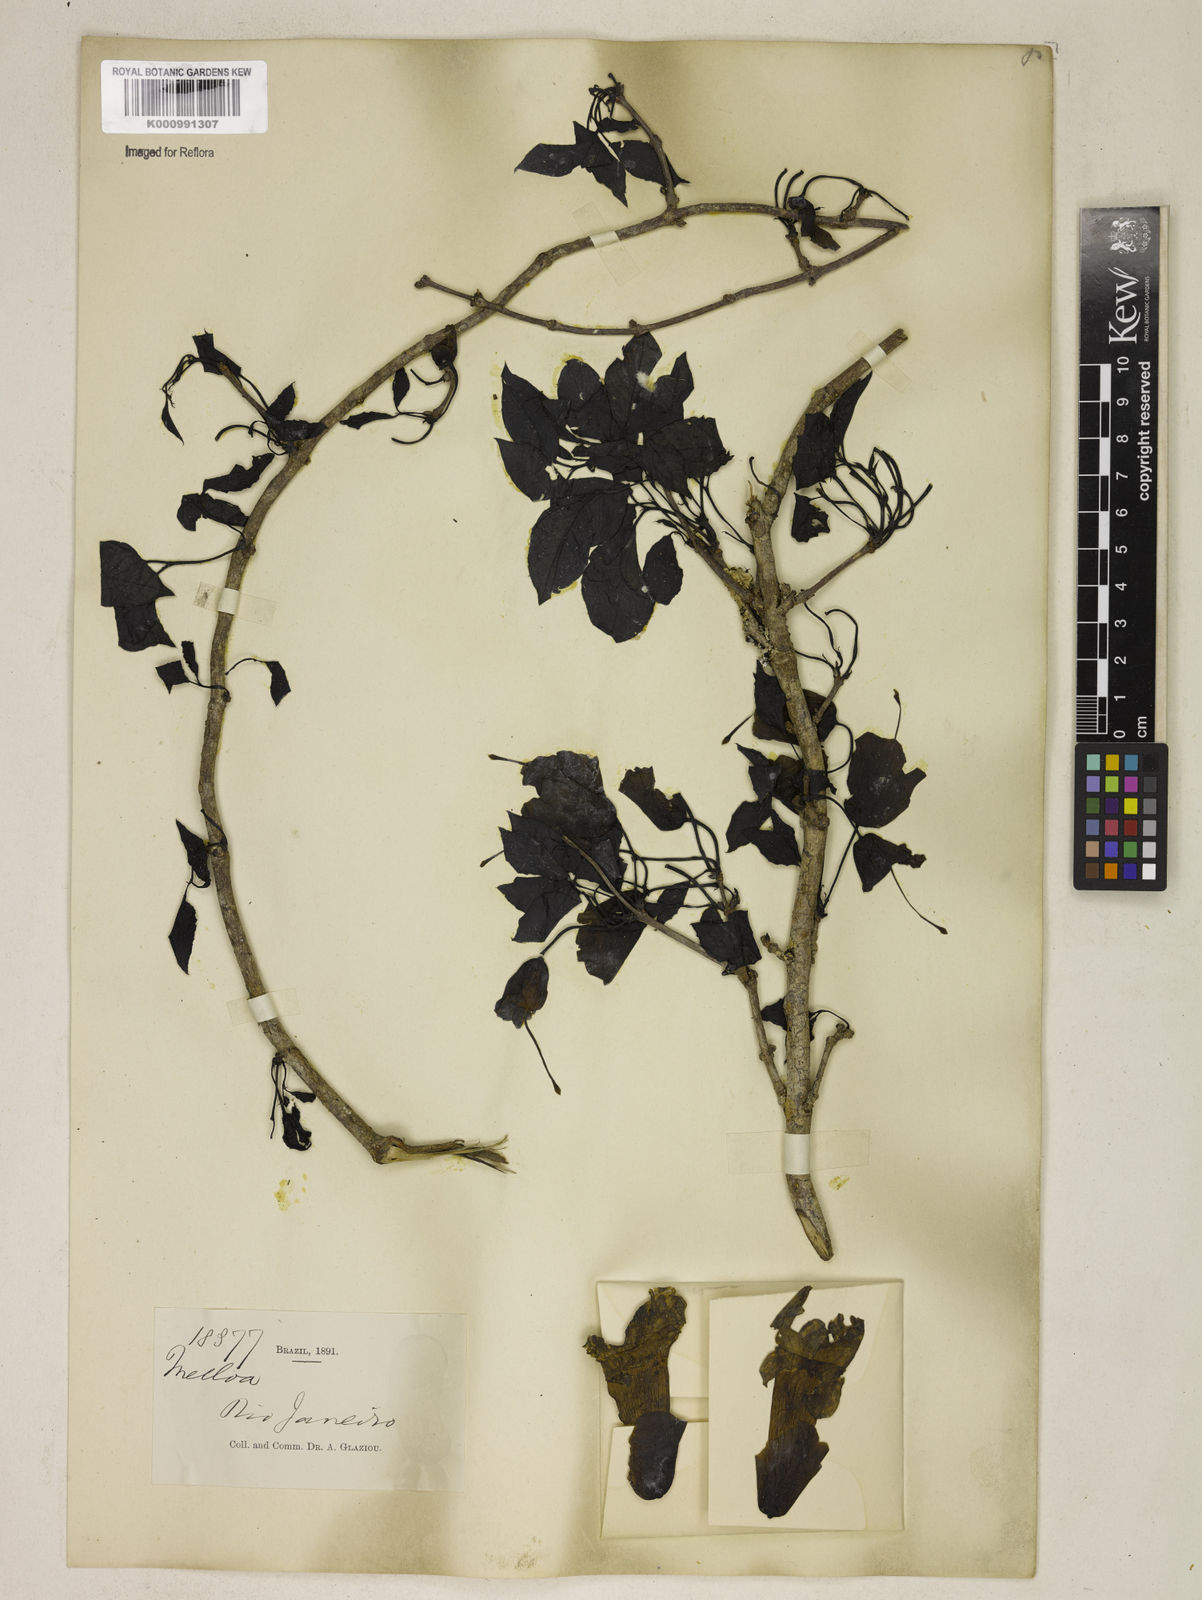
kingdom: Plantae
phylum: Tracheophyta
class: Magnoliopsida
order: Lamiales
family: Bignoniaceae
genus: Dolichandra
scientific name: Dolichandra
